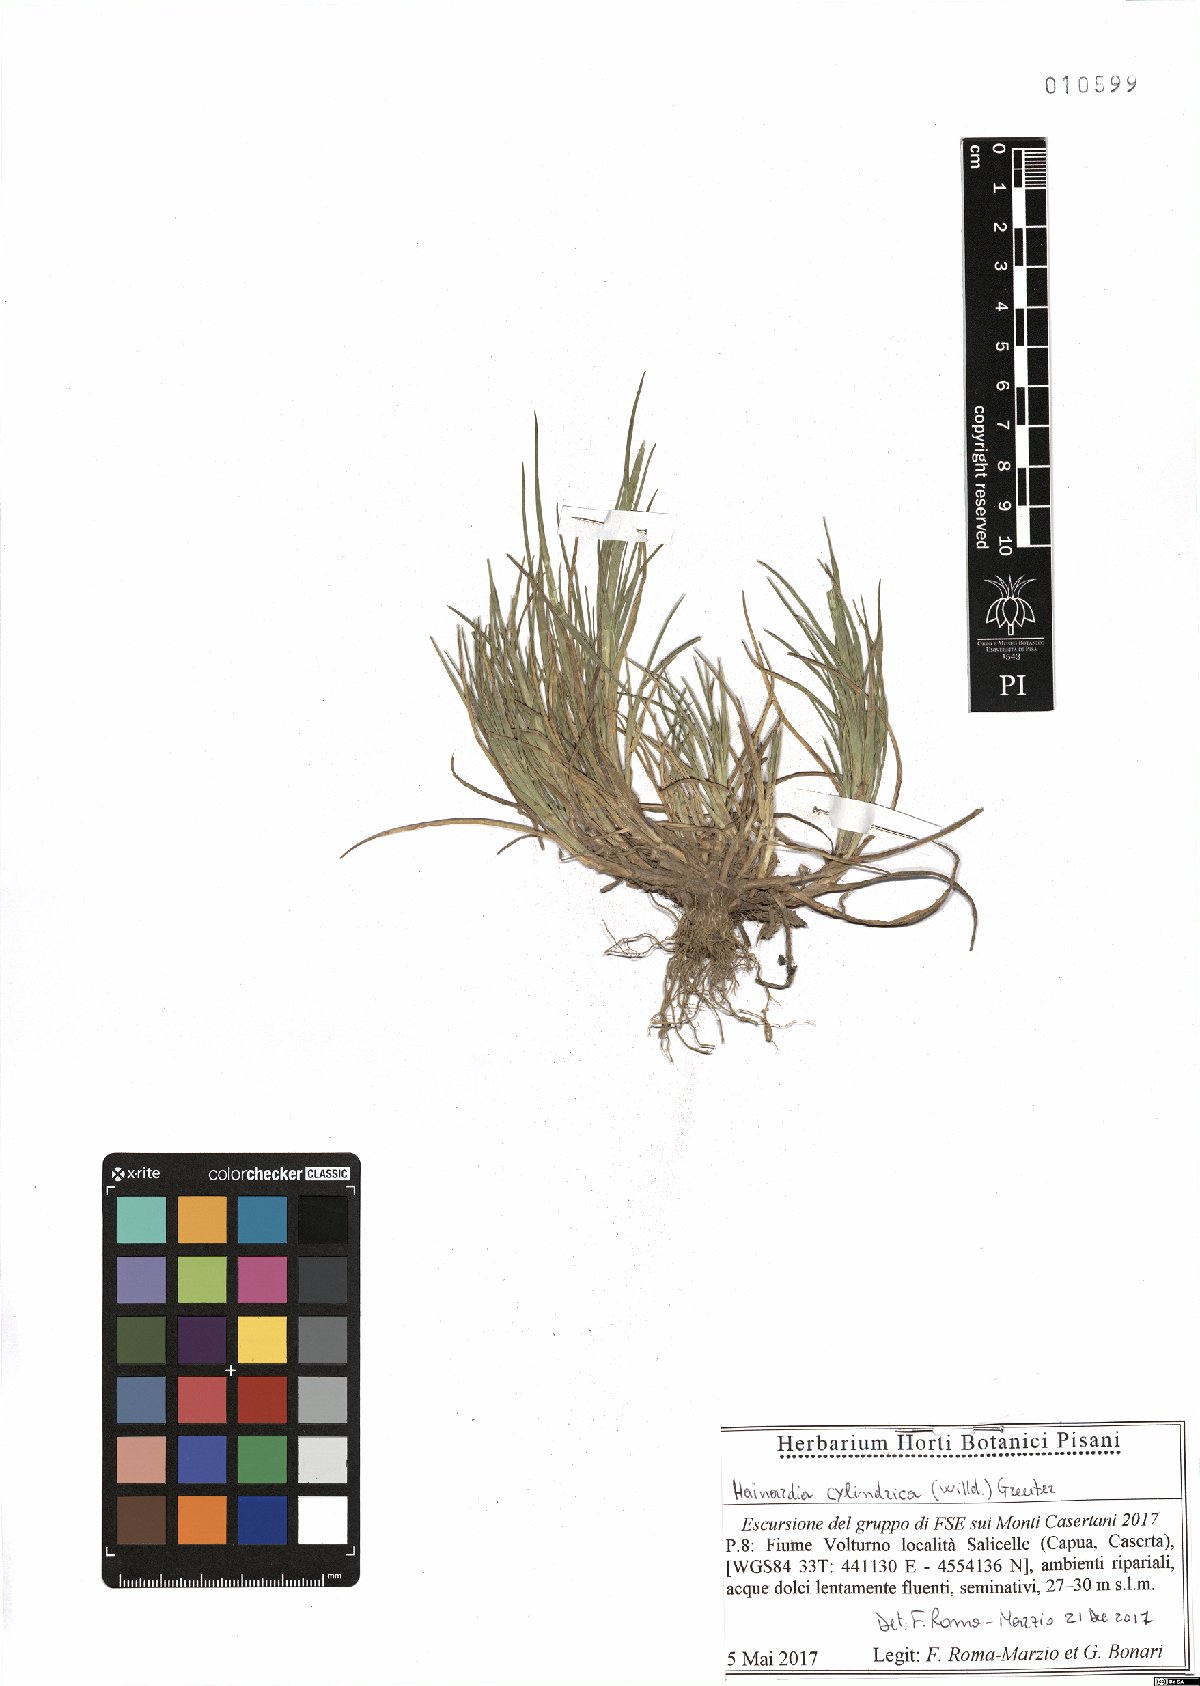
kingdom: Plantae
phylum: Tracheophyta
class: Liliopsida
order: Poales
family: Poaceae
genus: Parapholis
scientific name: Parapholis cylindrica
